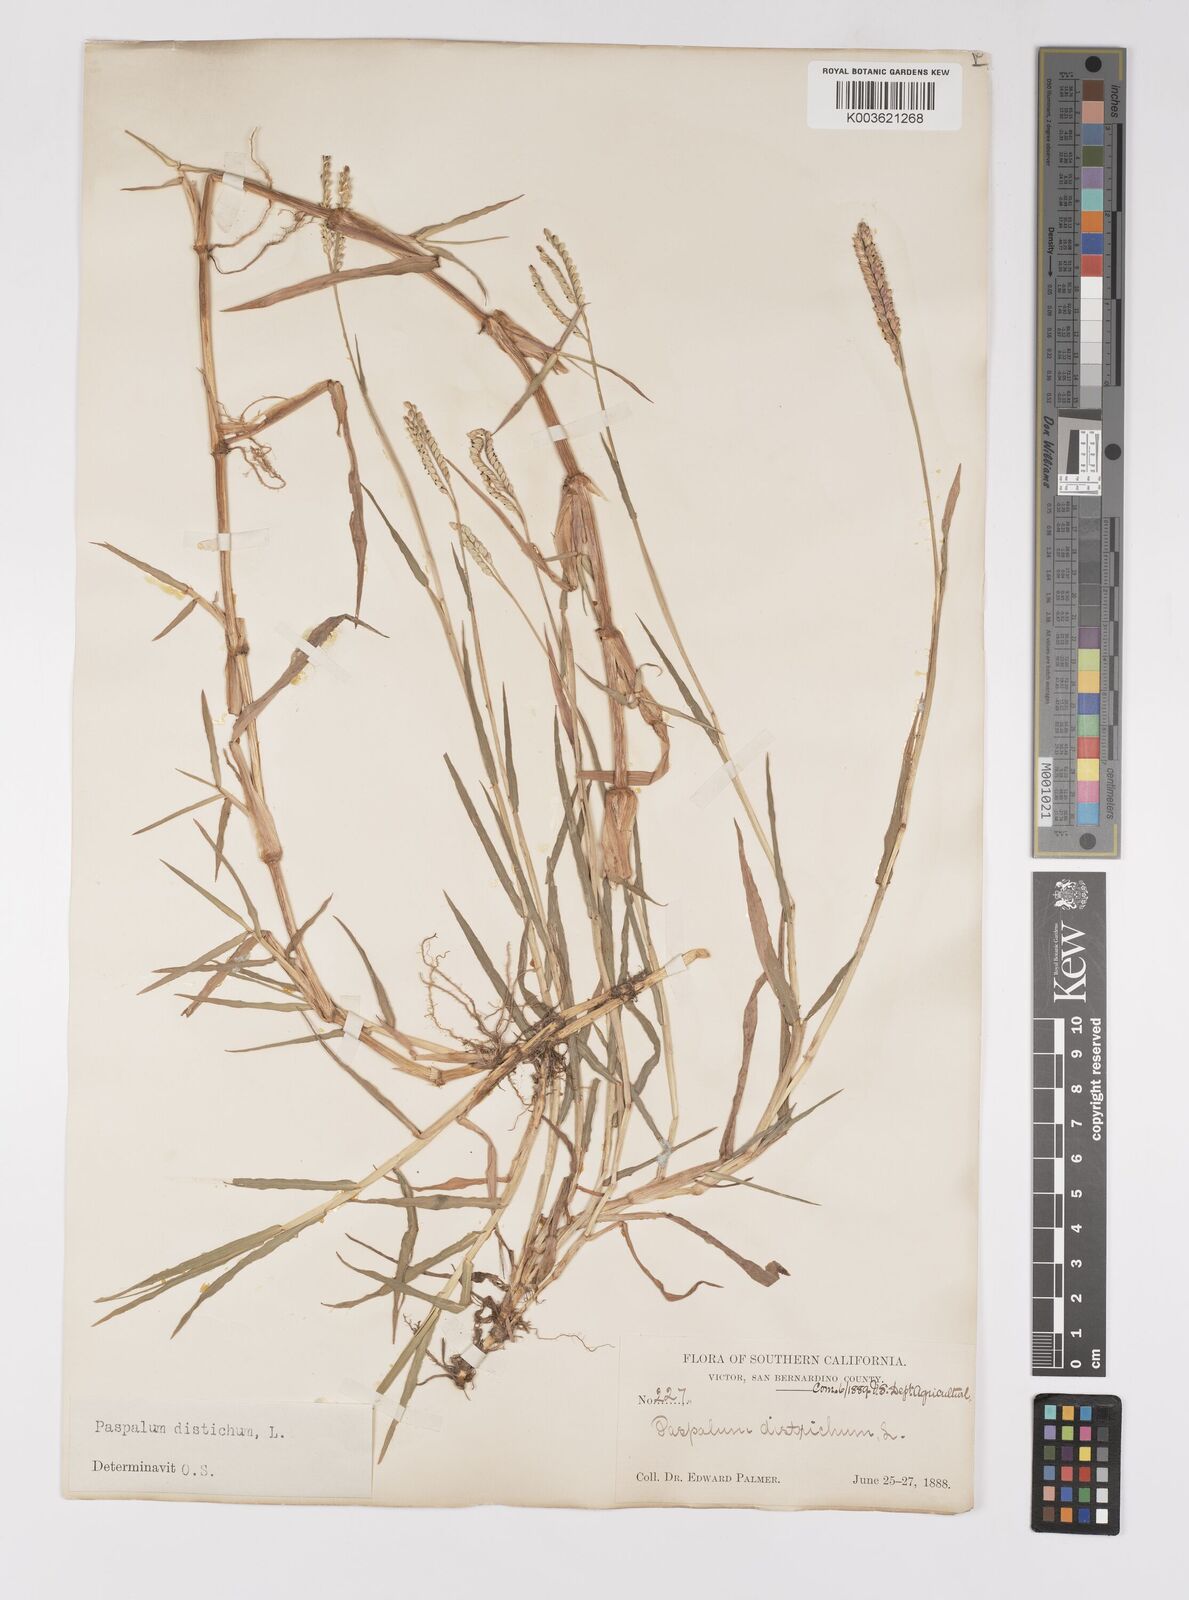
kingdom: Plantae
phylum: Tracheophyta
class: Liliopsida
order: Poales
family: Poaceae
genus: Paspalum
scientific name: Paspalum distichum
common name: Knotgrass
